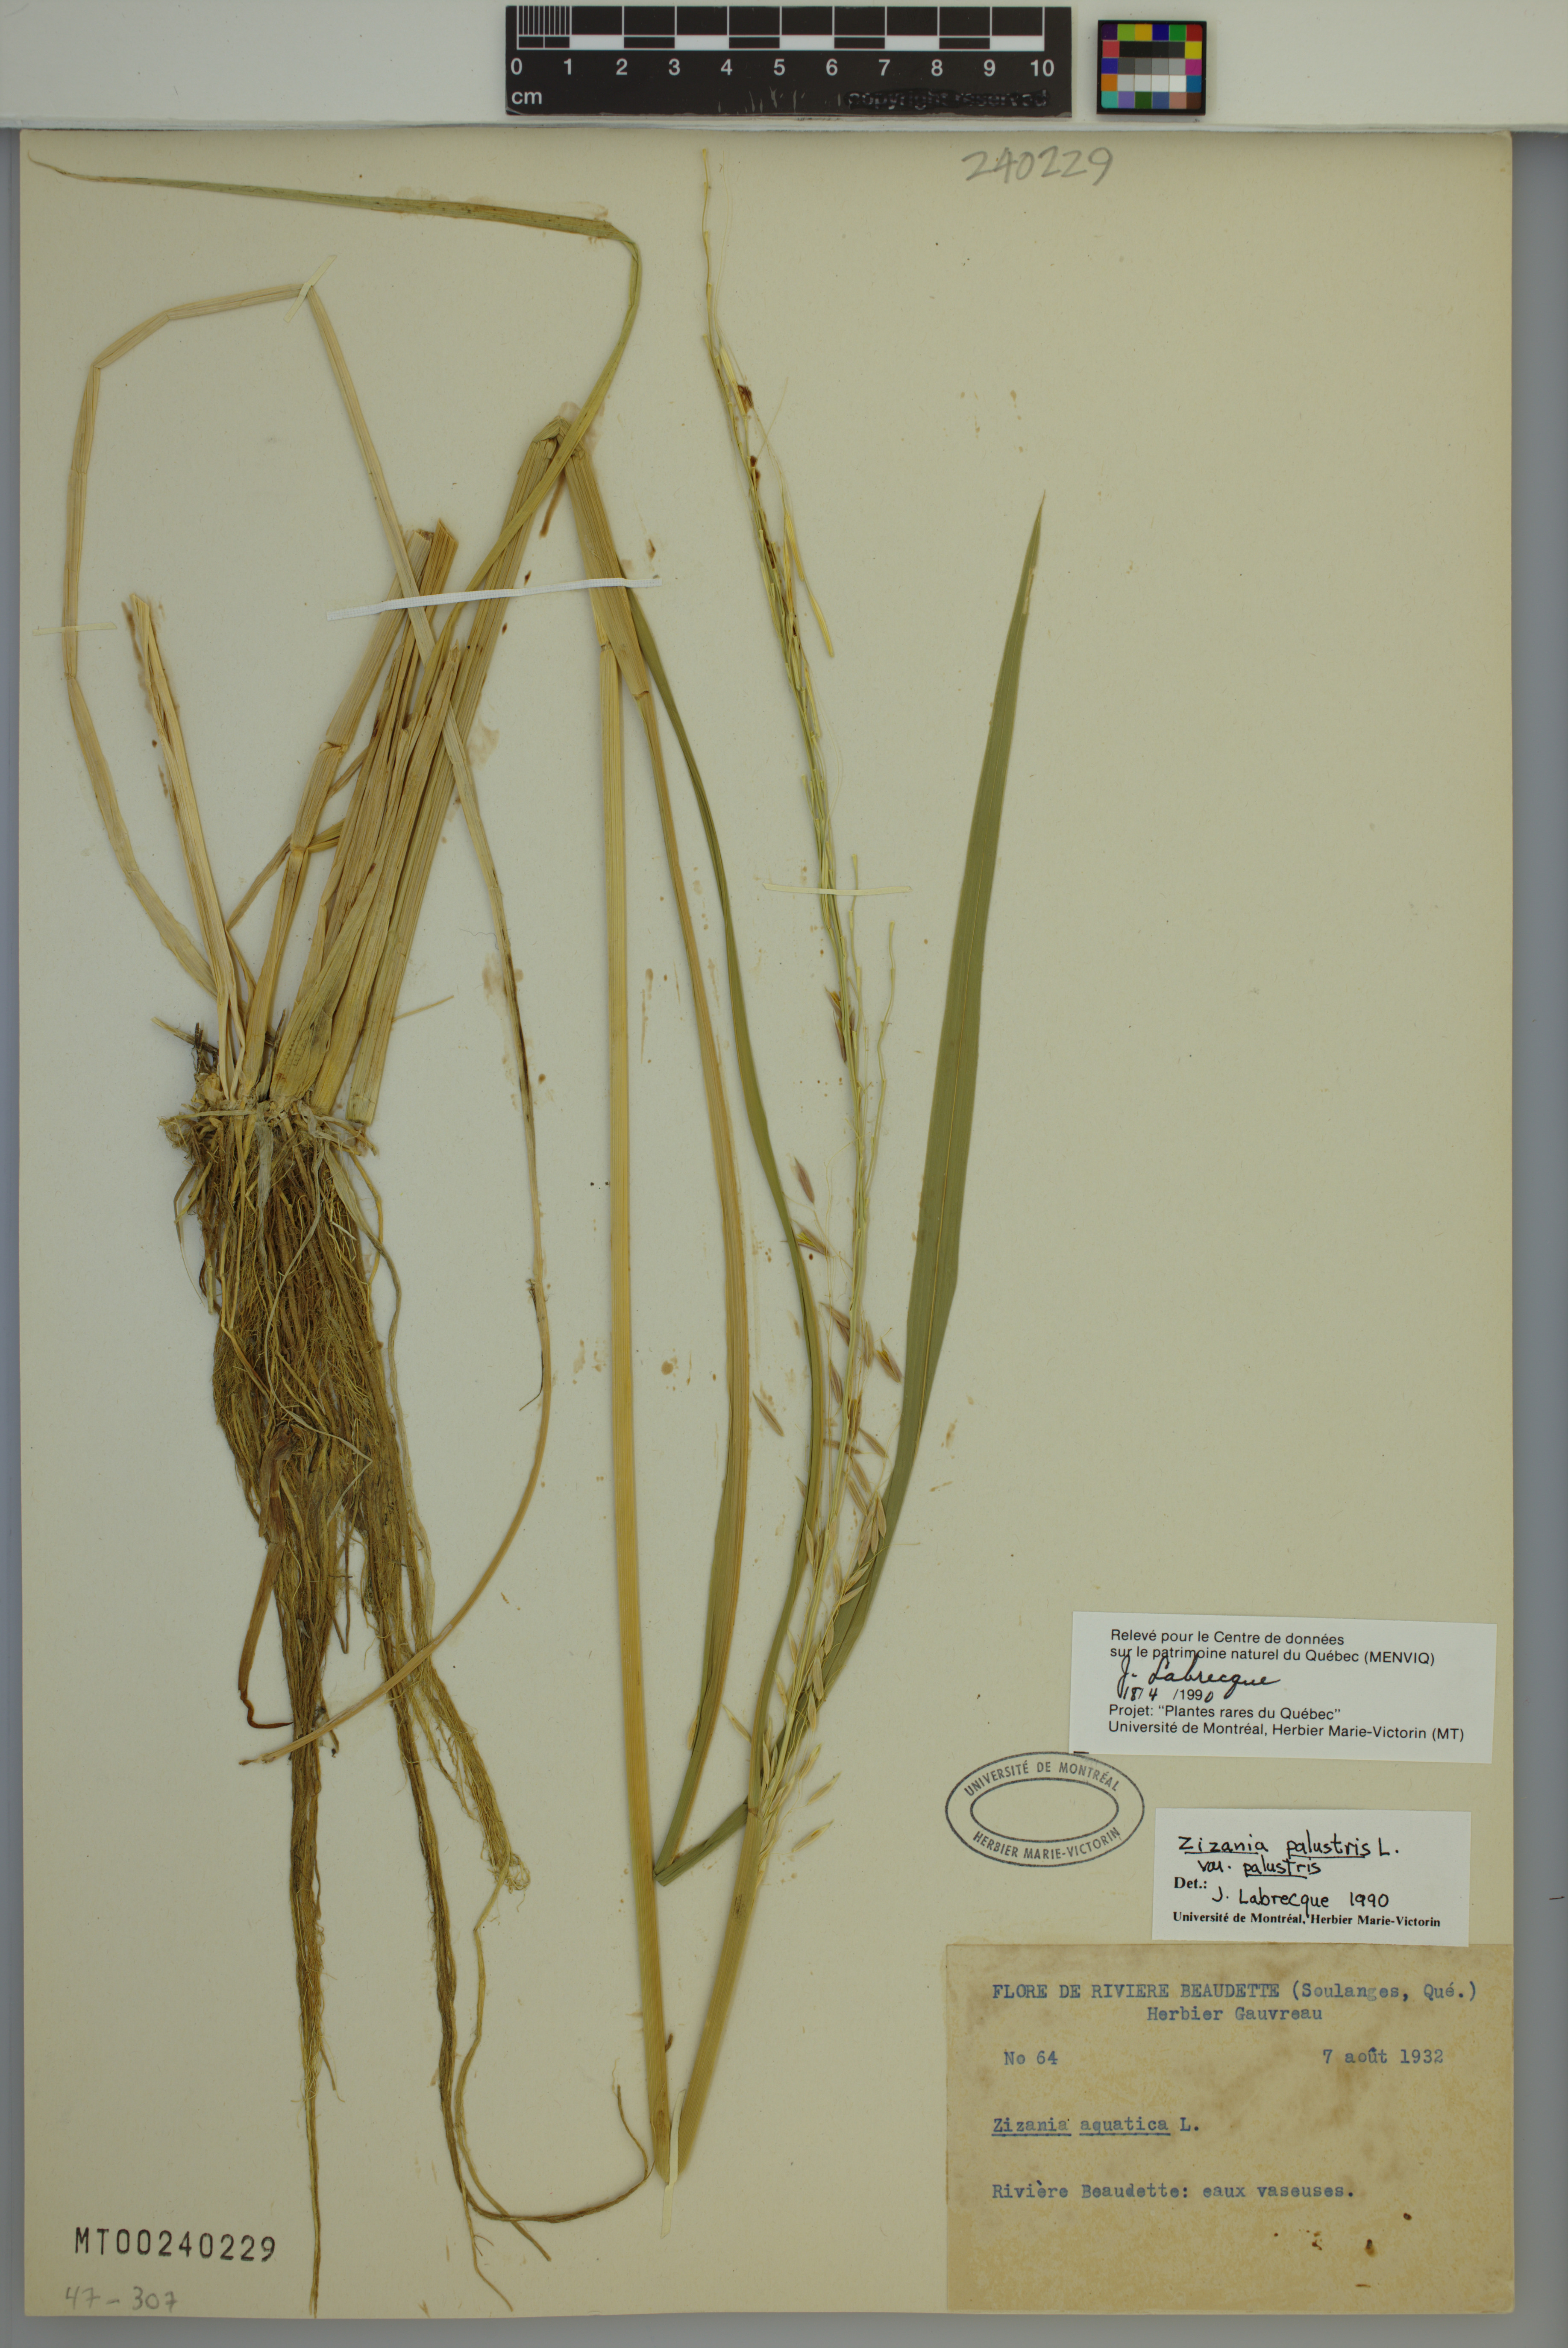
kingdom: Plantae
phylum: Tracheophyta
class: Liliopsida
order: Poales
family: Poaceae
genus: Zizania
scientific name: Zizania palustris
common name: Northern wild rice
